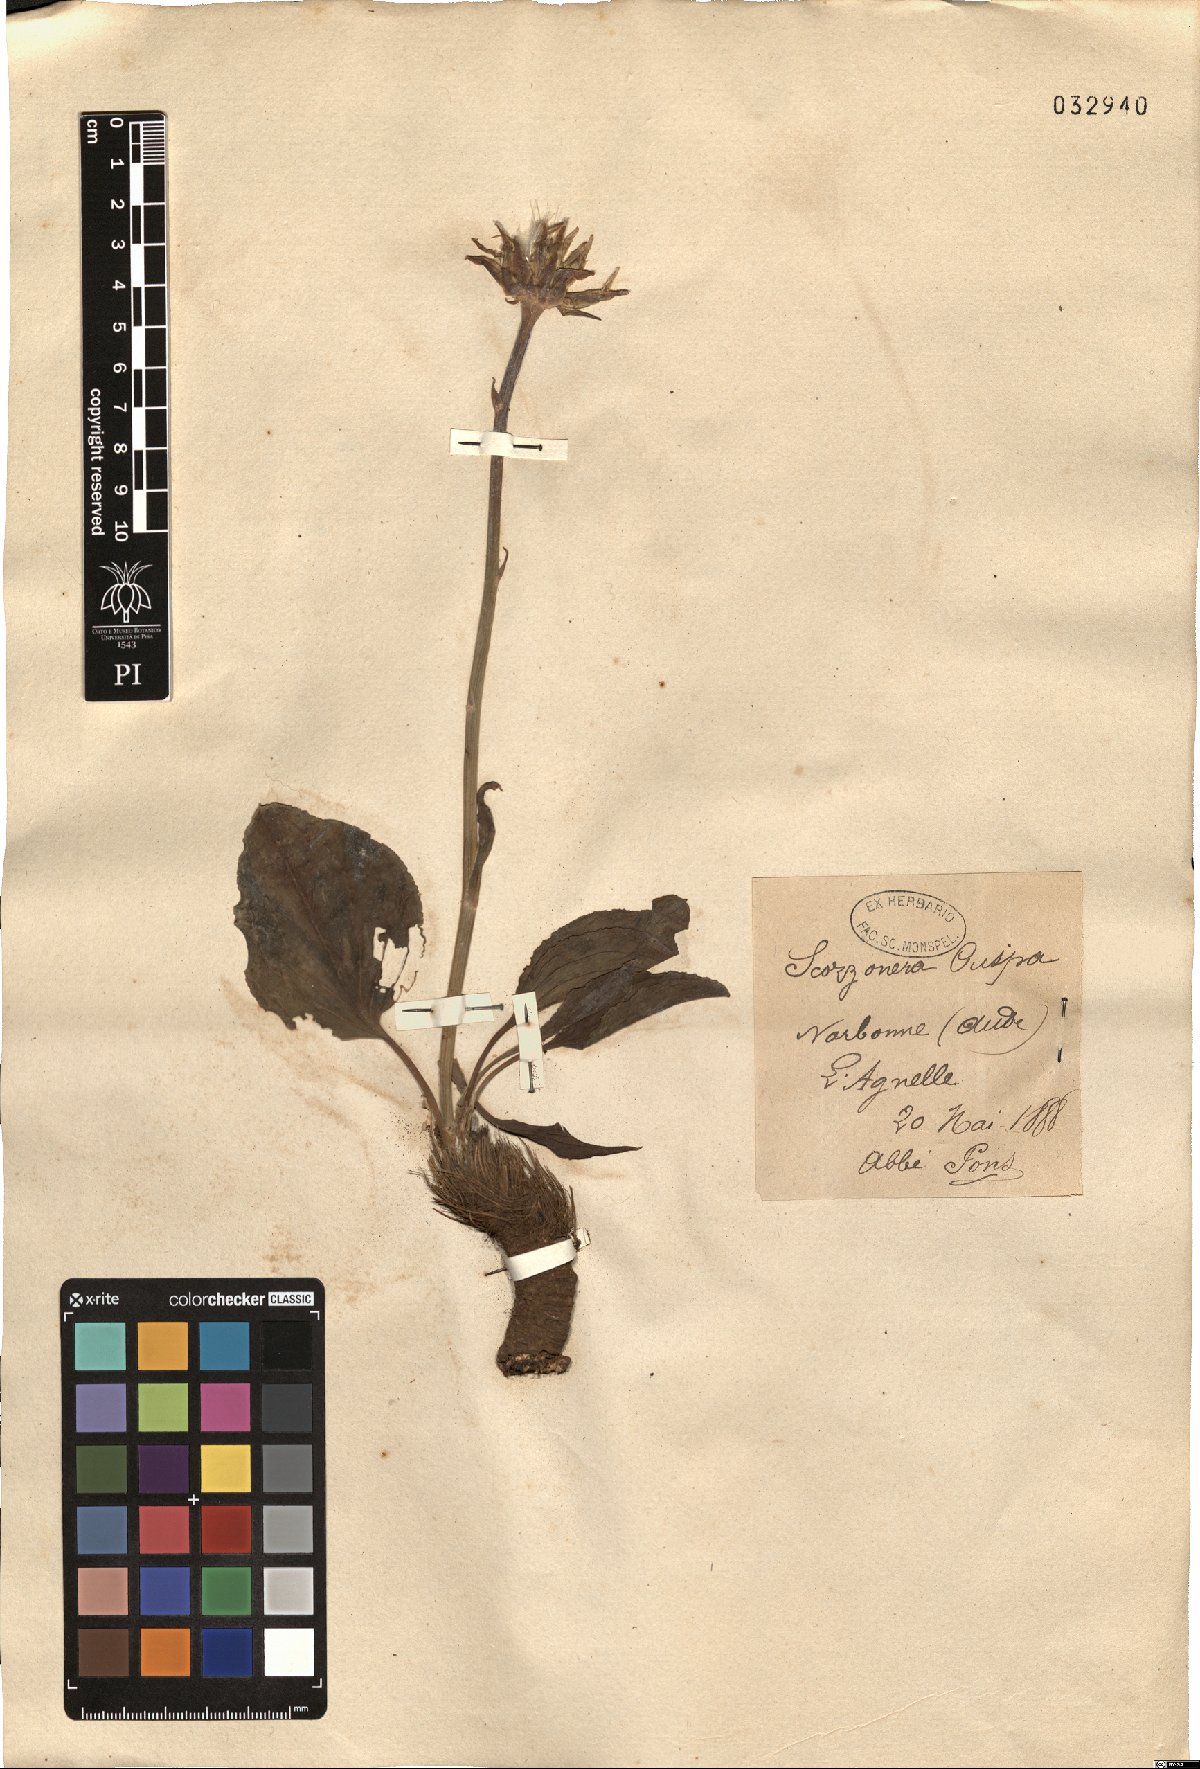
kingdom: Plantae
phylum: Tracheophyta
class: Magnoliopsida
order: Asterales
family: Asteraceae
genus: Takhtajaniantha
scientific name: Takhtajaniantha austriaca
